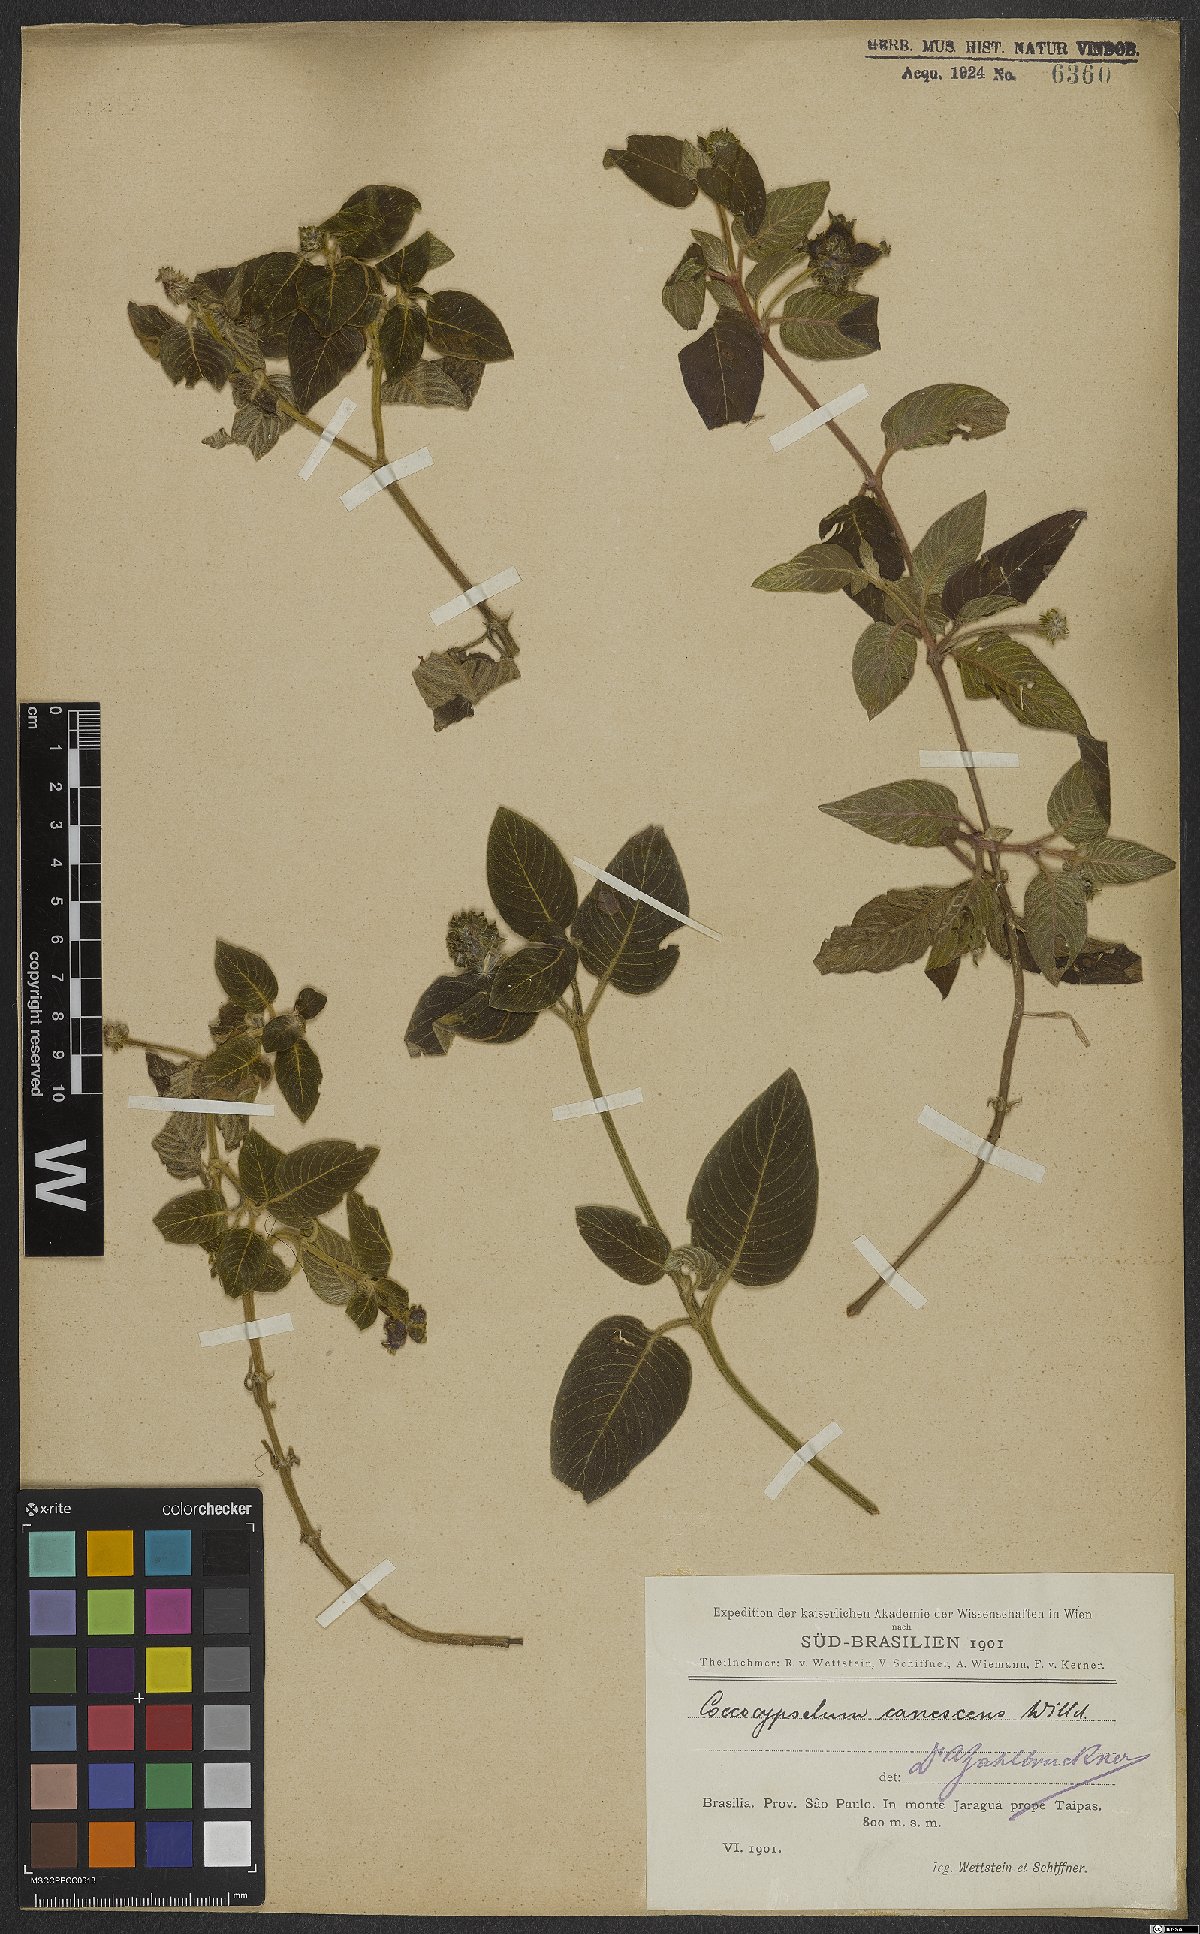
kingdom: Plantae
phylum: Tracheophyta
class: Magnoliopsida
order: Gentianales
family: Rubiaceae
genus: Coccocypselum
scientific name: Coccocypselum lanceolatum
